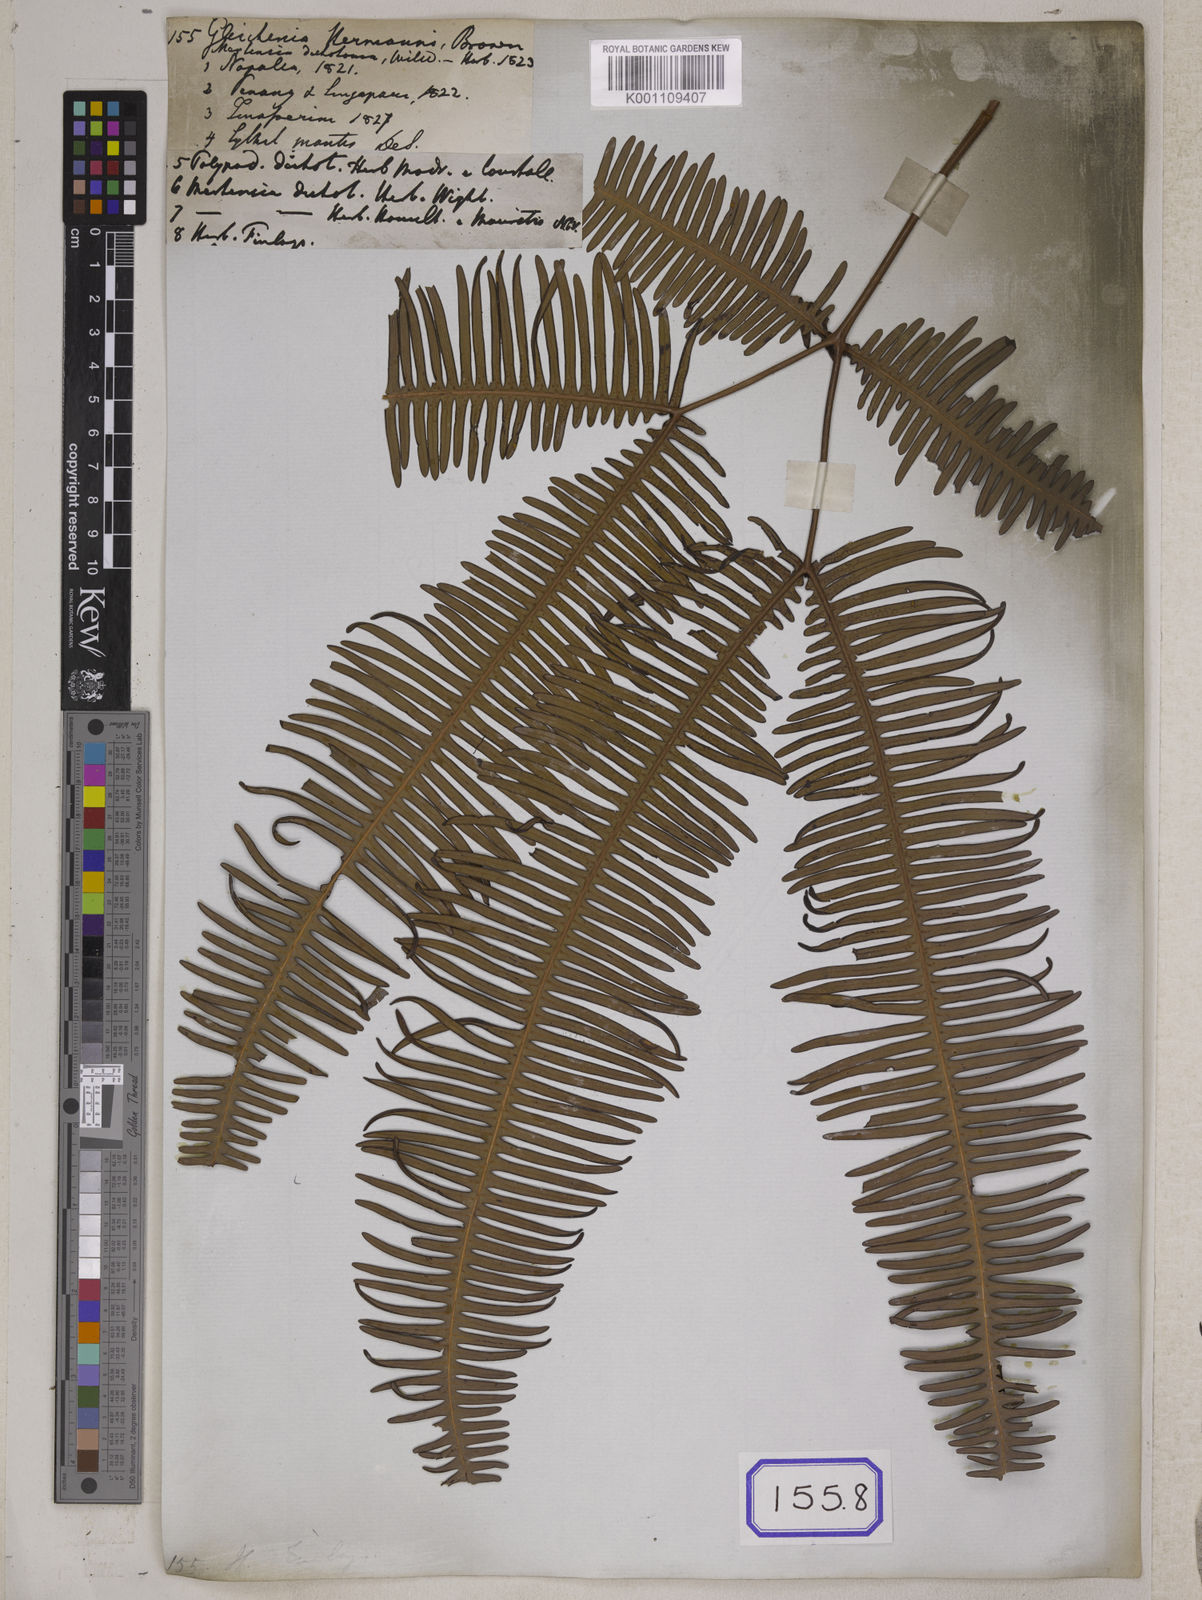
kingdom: Plantae
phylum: Tracheophyta
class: Polypodiopsida
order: Gleicheniales
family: Gleicheniaceae
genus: Dicranopteris
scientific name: Dicranopteris linearis
